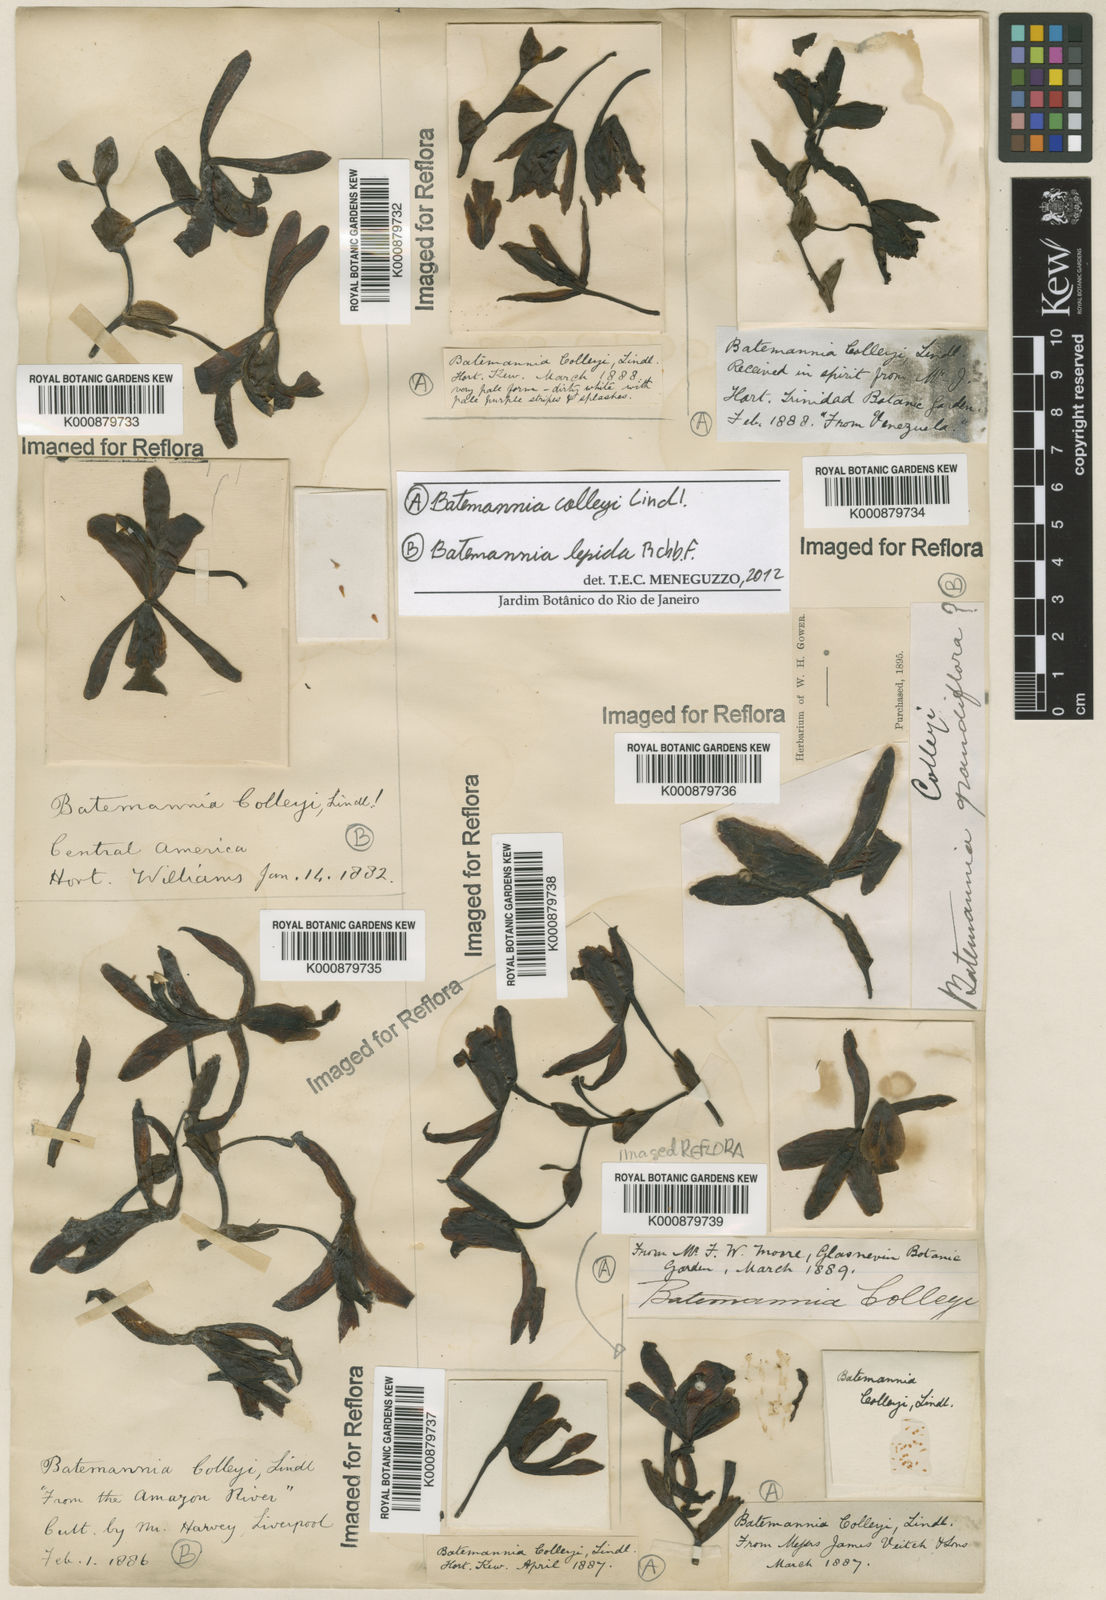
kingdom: Plantae
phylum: Tracheophyta
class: Liliopsida
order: Asparagales
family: Orchidaceae
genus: Batemannia
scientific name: Batemannia colleyi
